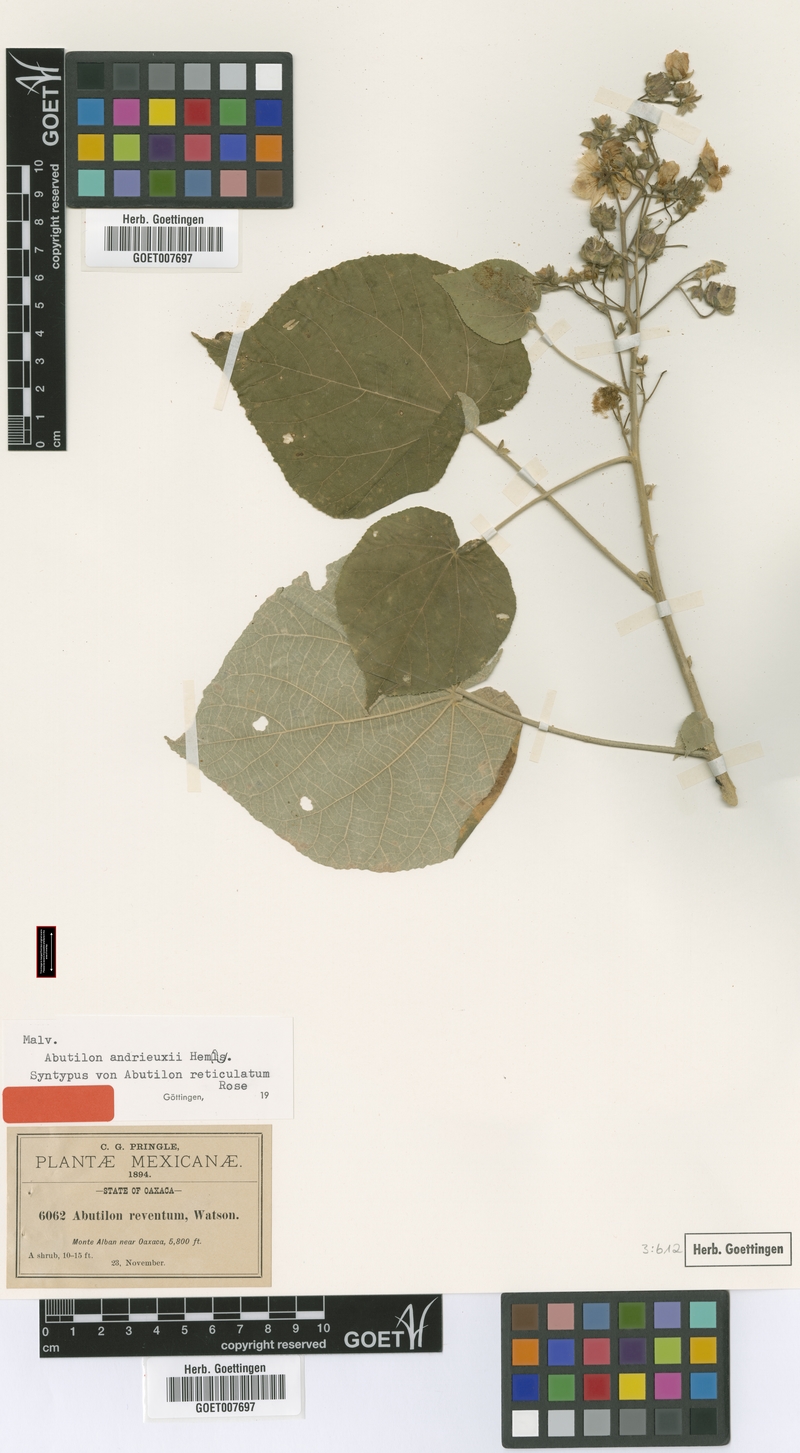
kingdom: Plantae
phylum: Tracheophyta
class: Magnoliopsida
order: Malvales
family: Malvaceae
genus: Abutilon
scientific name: Abutilon andrieuxii
